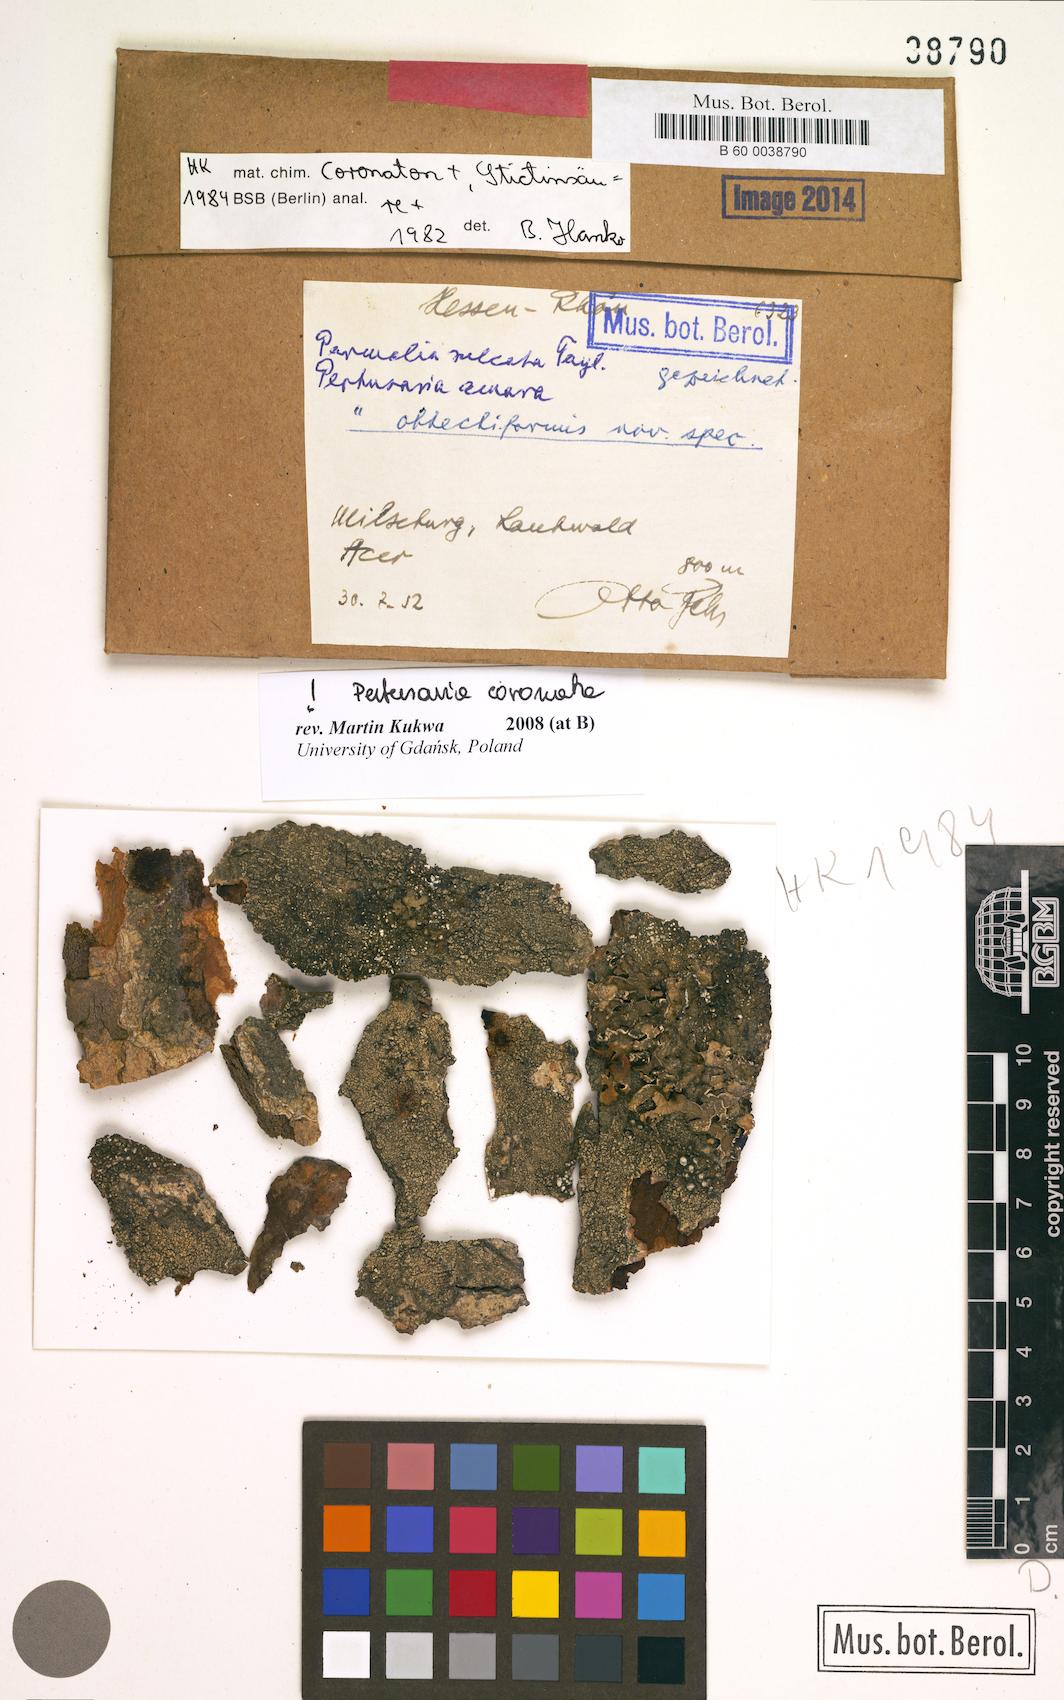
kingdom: Fungi
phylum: Ascomycota
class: Lecanoromycetes
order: Pertusariales
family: Pertusariaceae
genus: Pertusaria
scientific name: Pertusaria
